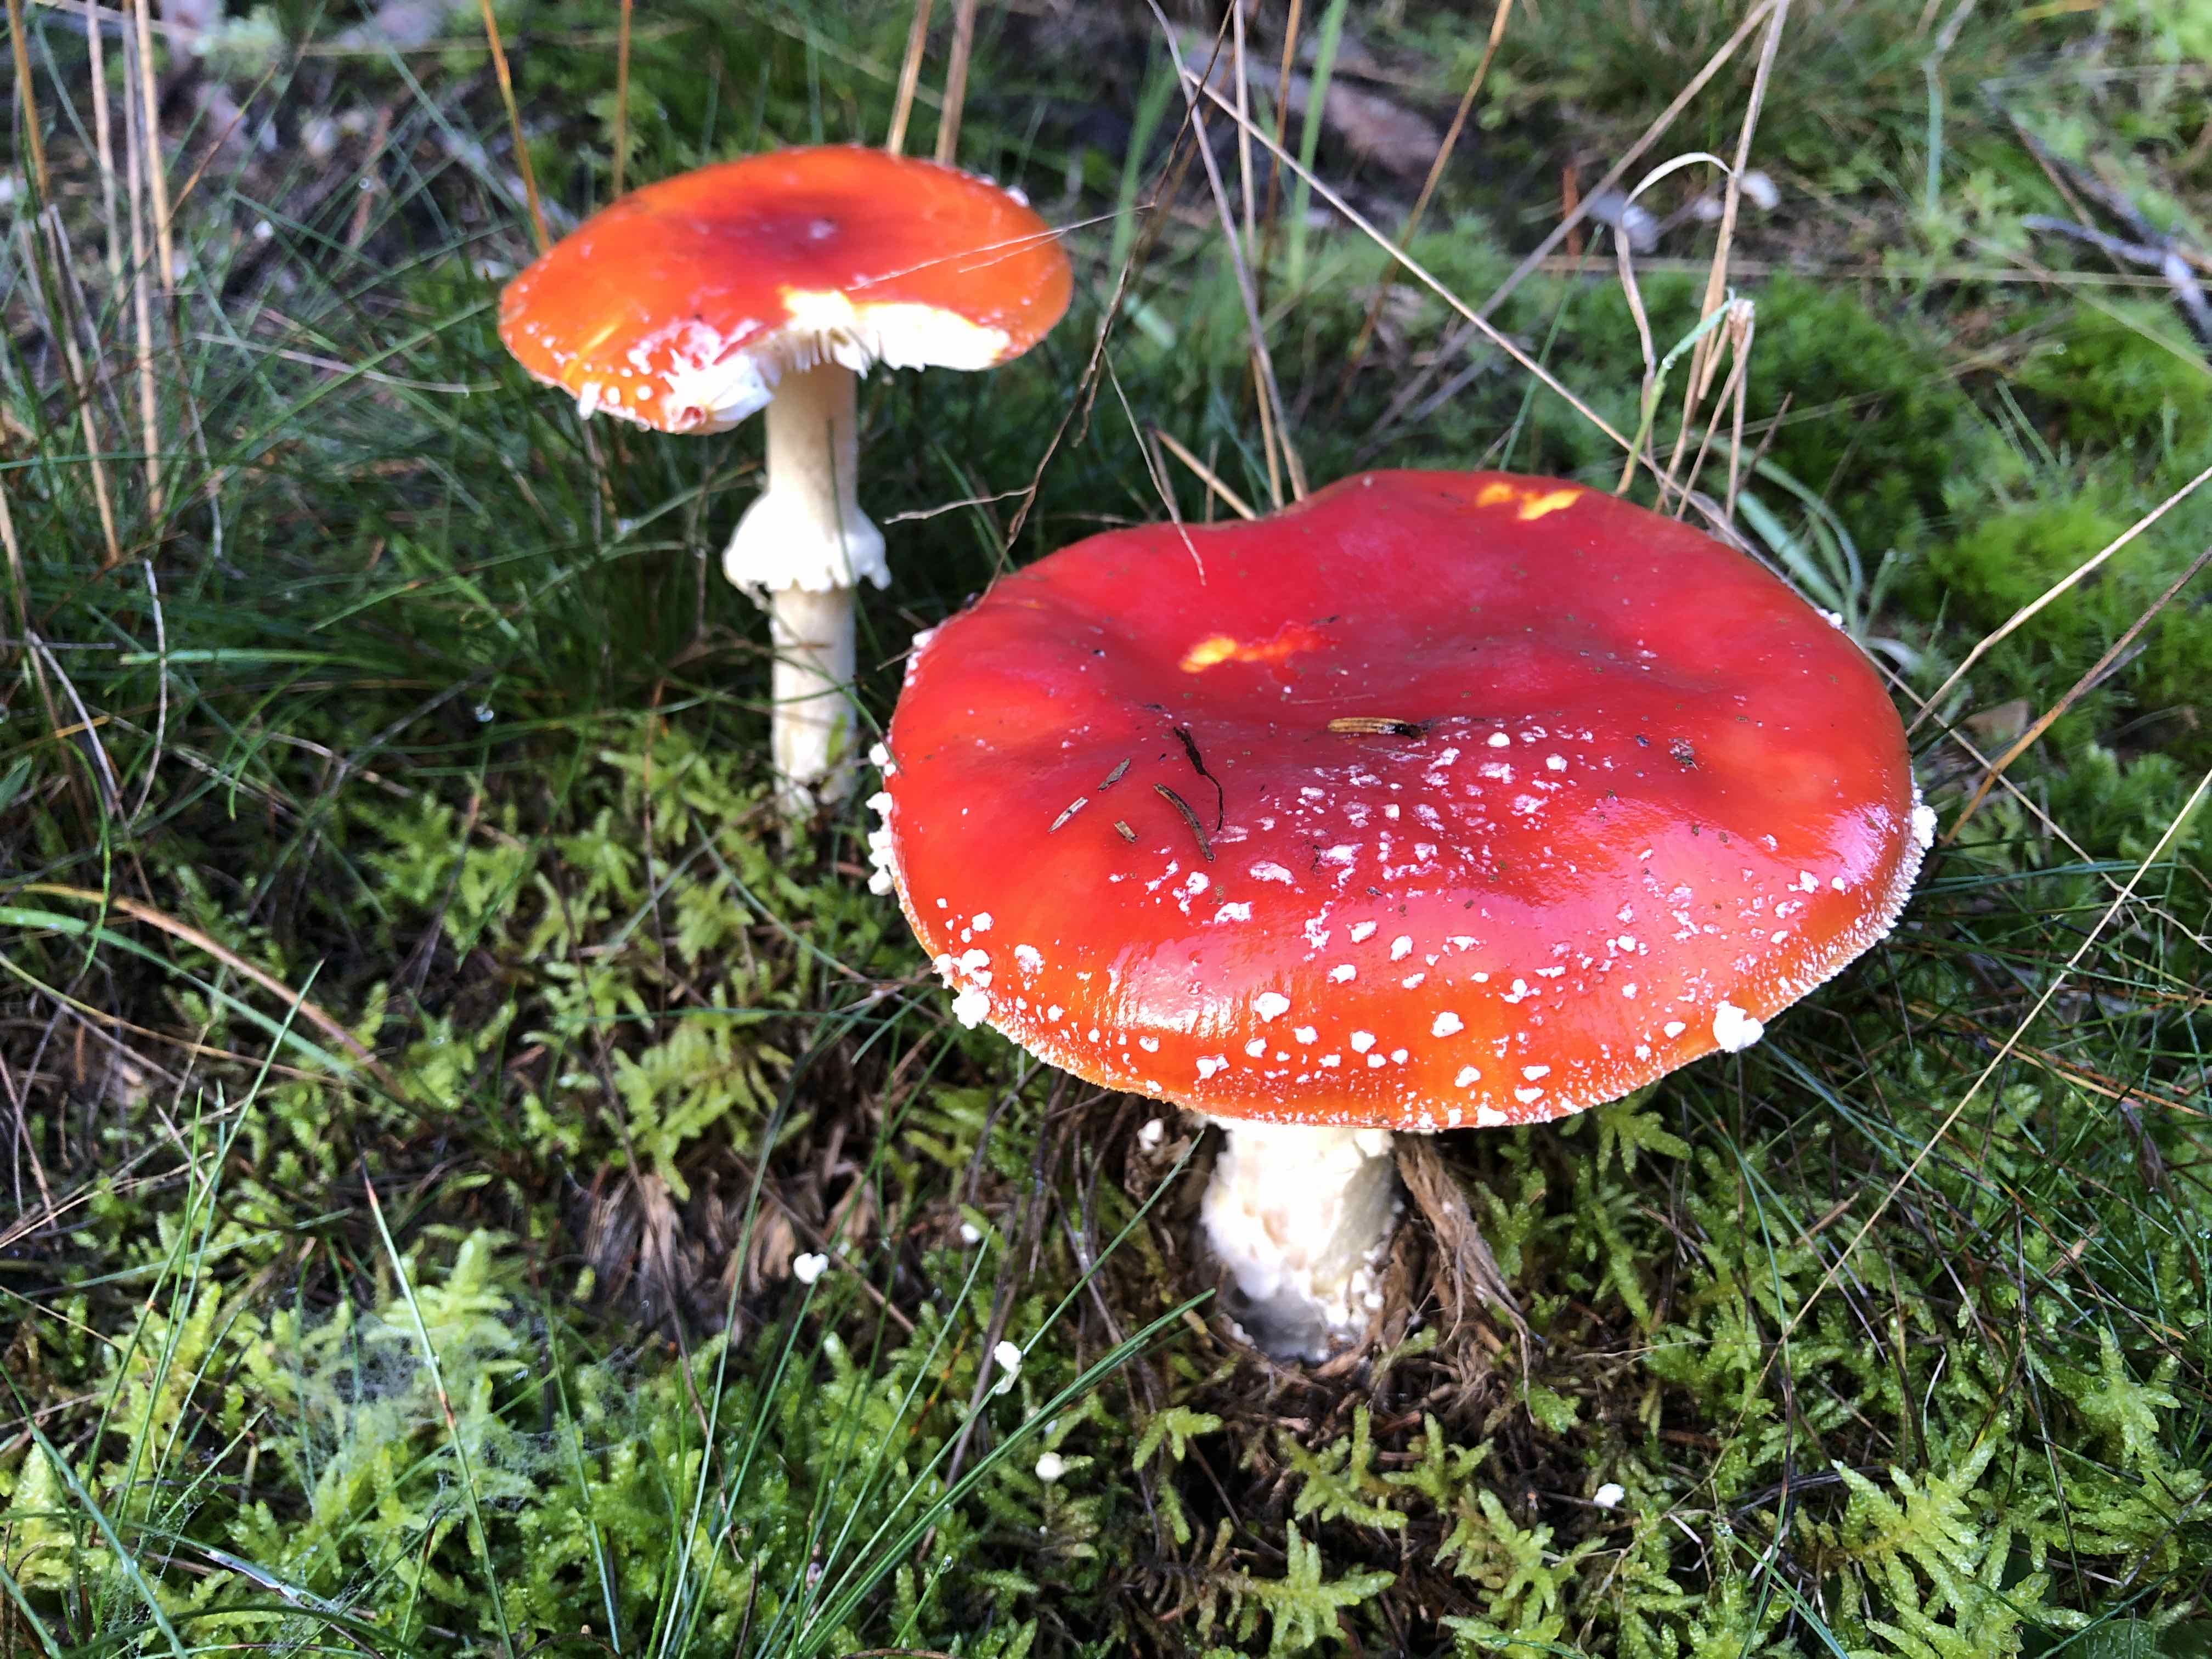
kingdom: Fungi
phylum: Basidiomycota
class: Agaricomycetes
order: Agaricales
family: Amanitaceae
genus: Amanita
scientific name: Amanita muscaria
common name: rød fluesvamp
